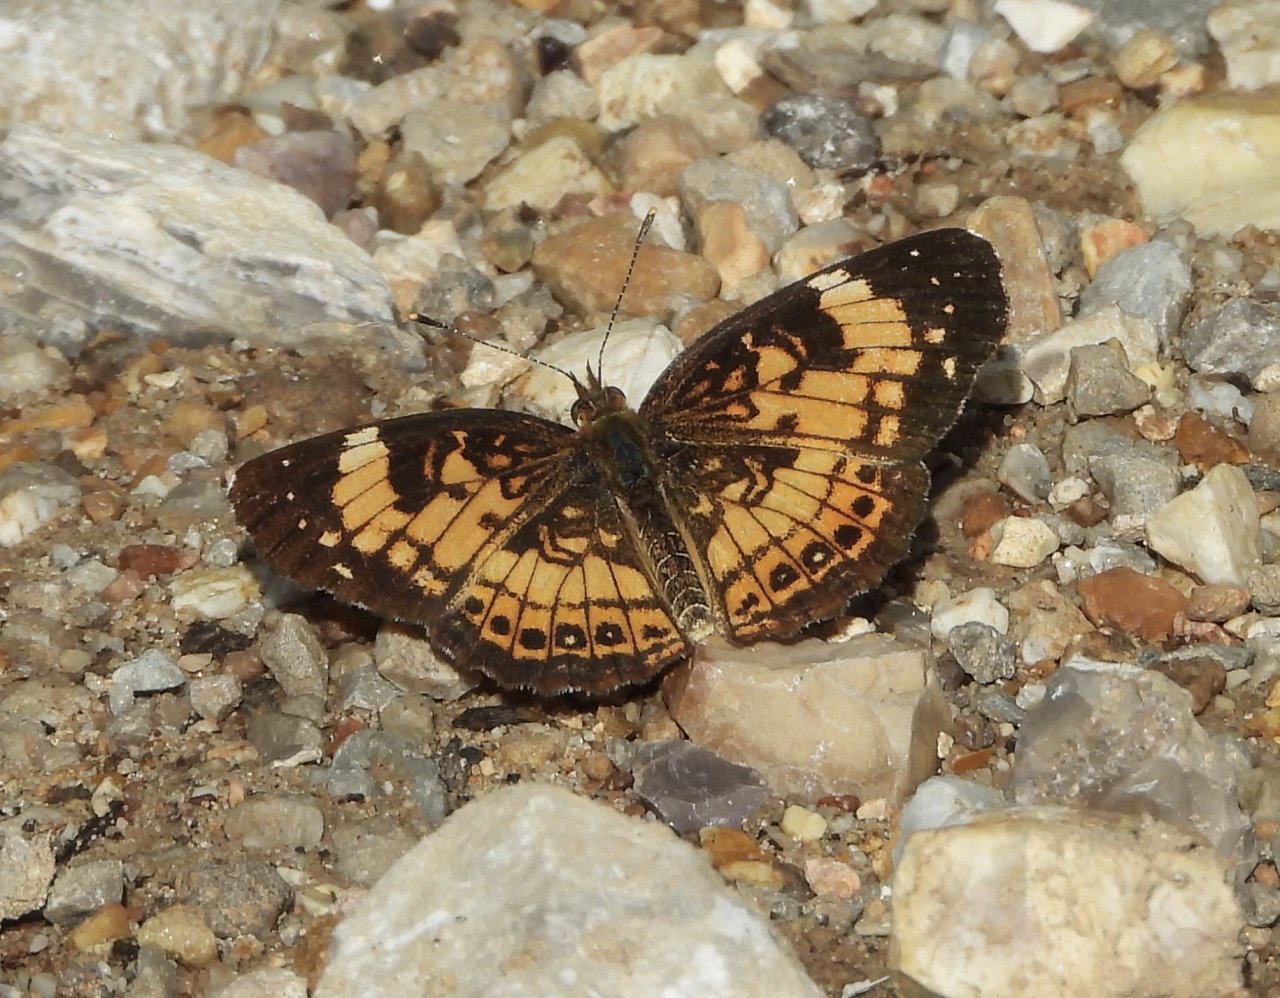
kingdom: Animalia
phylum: Arthropoda
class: Insecta
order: Lepidoptera
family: Nymphalidae
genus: Chlosyne
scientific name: Chlosyne nycteis
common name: Silvery Checkerspot
